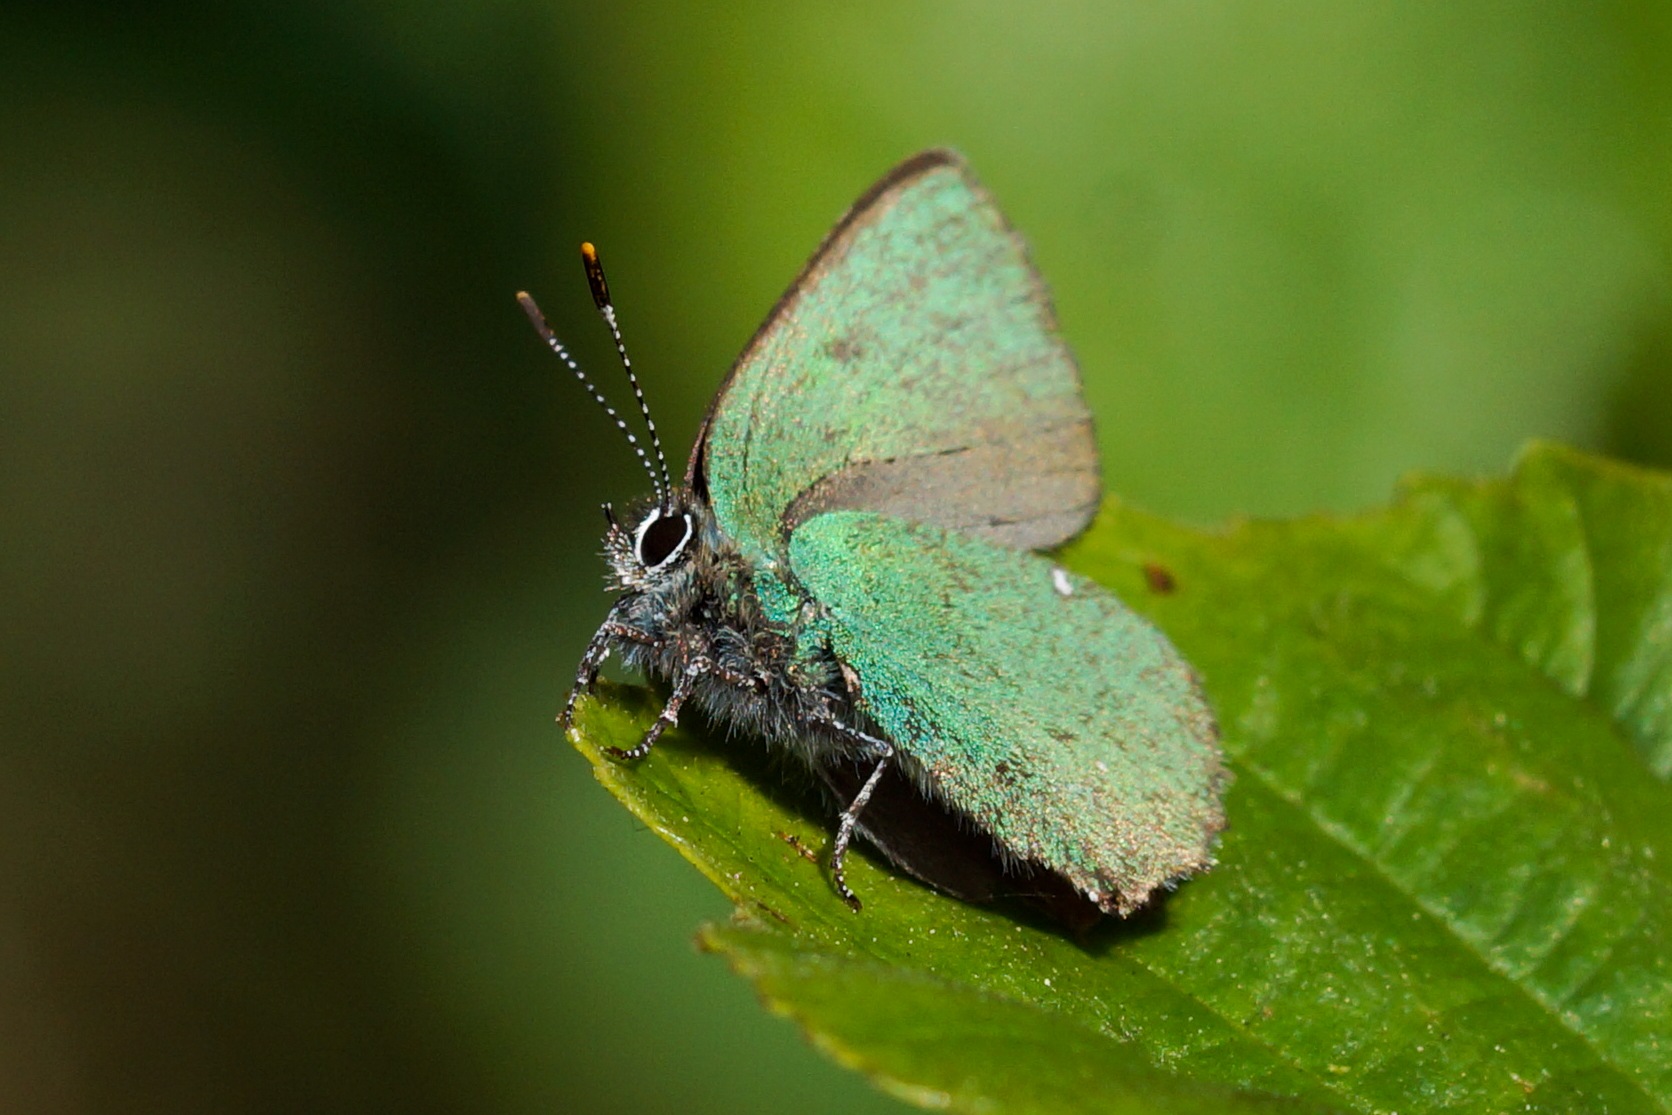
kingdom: Animalia
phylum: Arthropoda
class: Insecta
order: Lepidoptera
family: Lycaenidae
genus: Callophrys
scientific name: Callophrys rubi
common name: Grøn busksommerfugl
